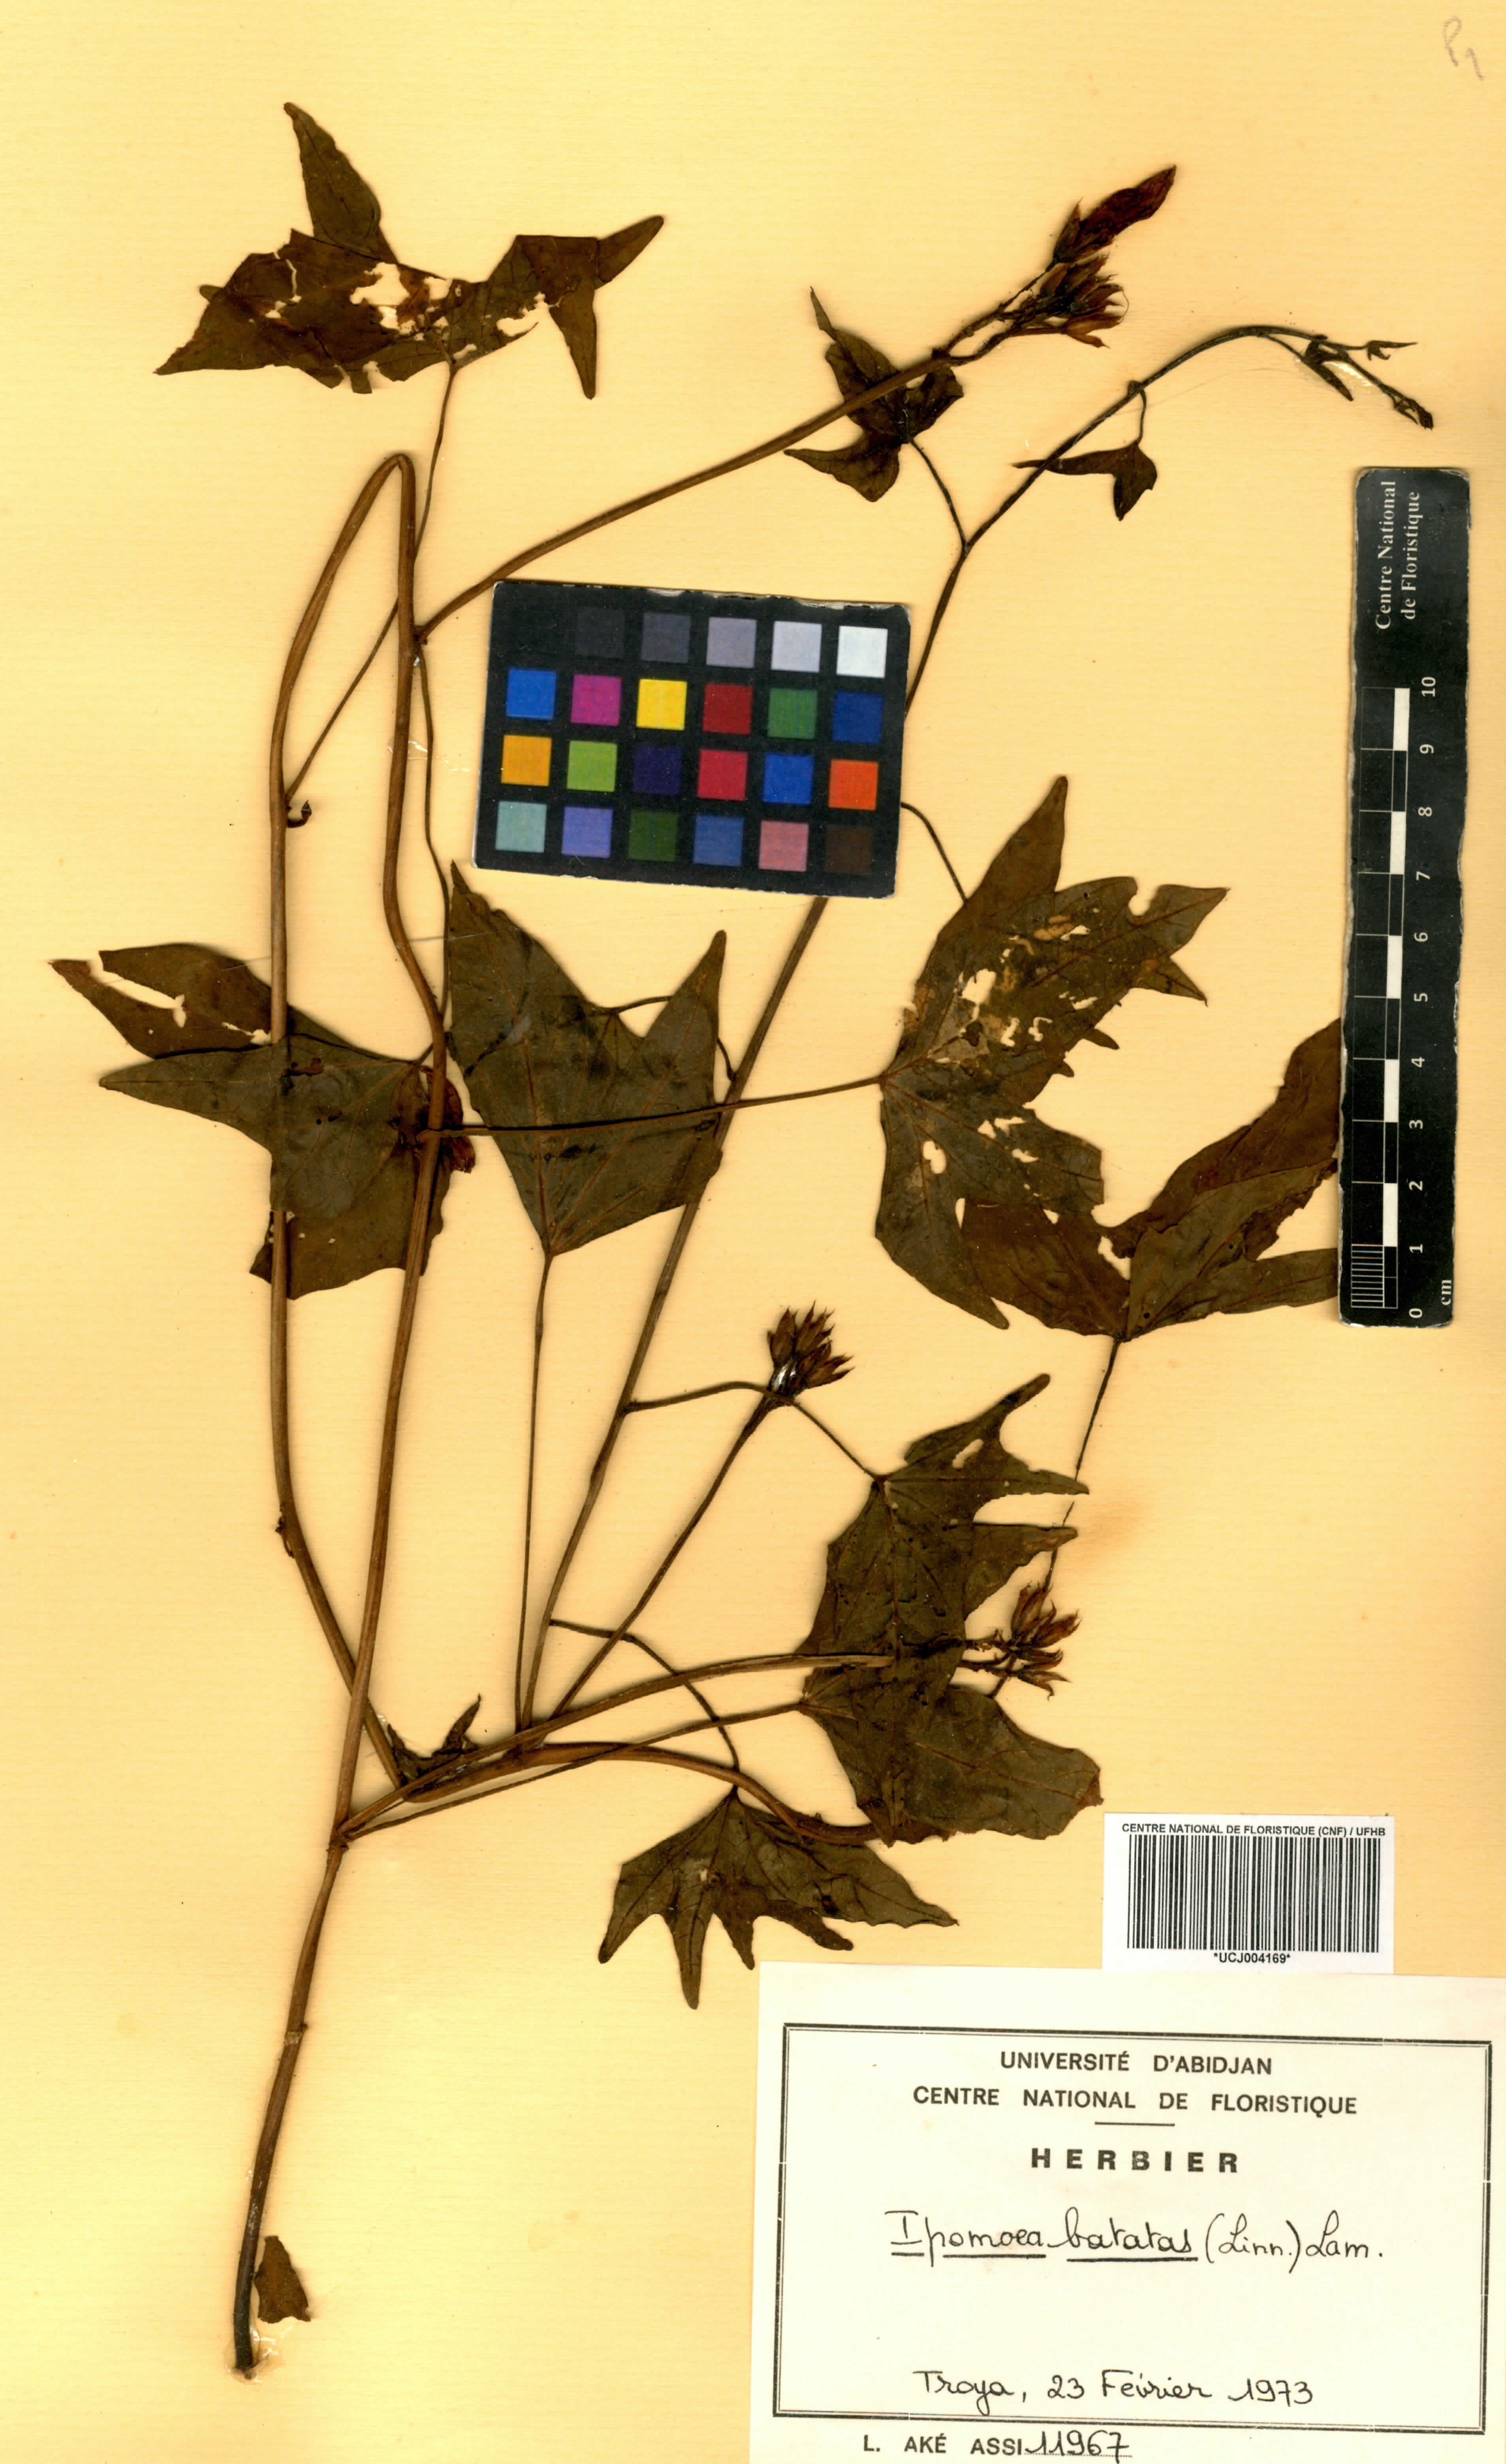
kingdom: Plantae
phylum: Tracheophyta
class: Magnoliopsida
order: Solanales
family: Convolvulaceae
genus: Ipomoea
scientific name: Ipomoea batatas
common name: Sweet-potato
